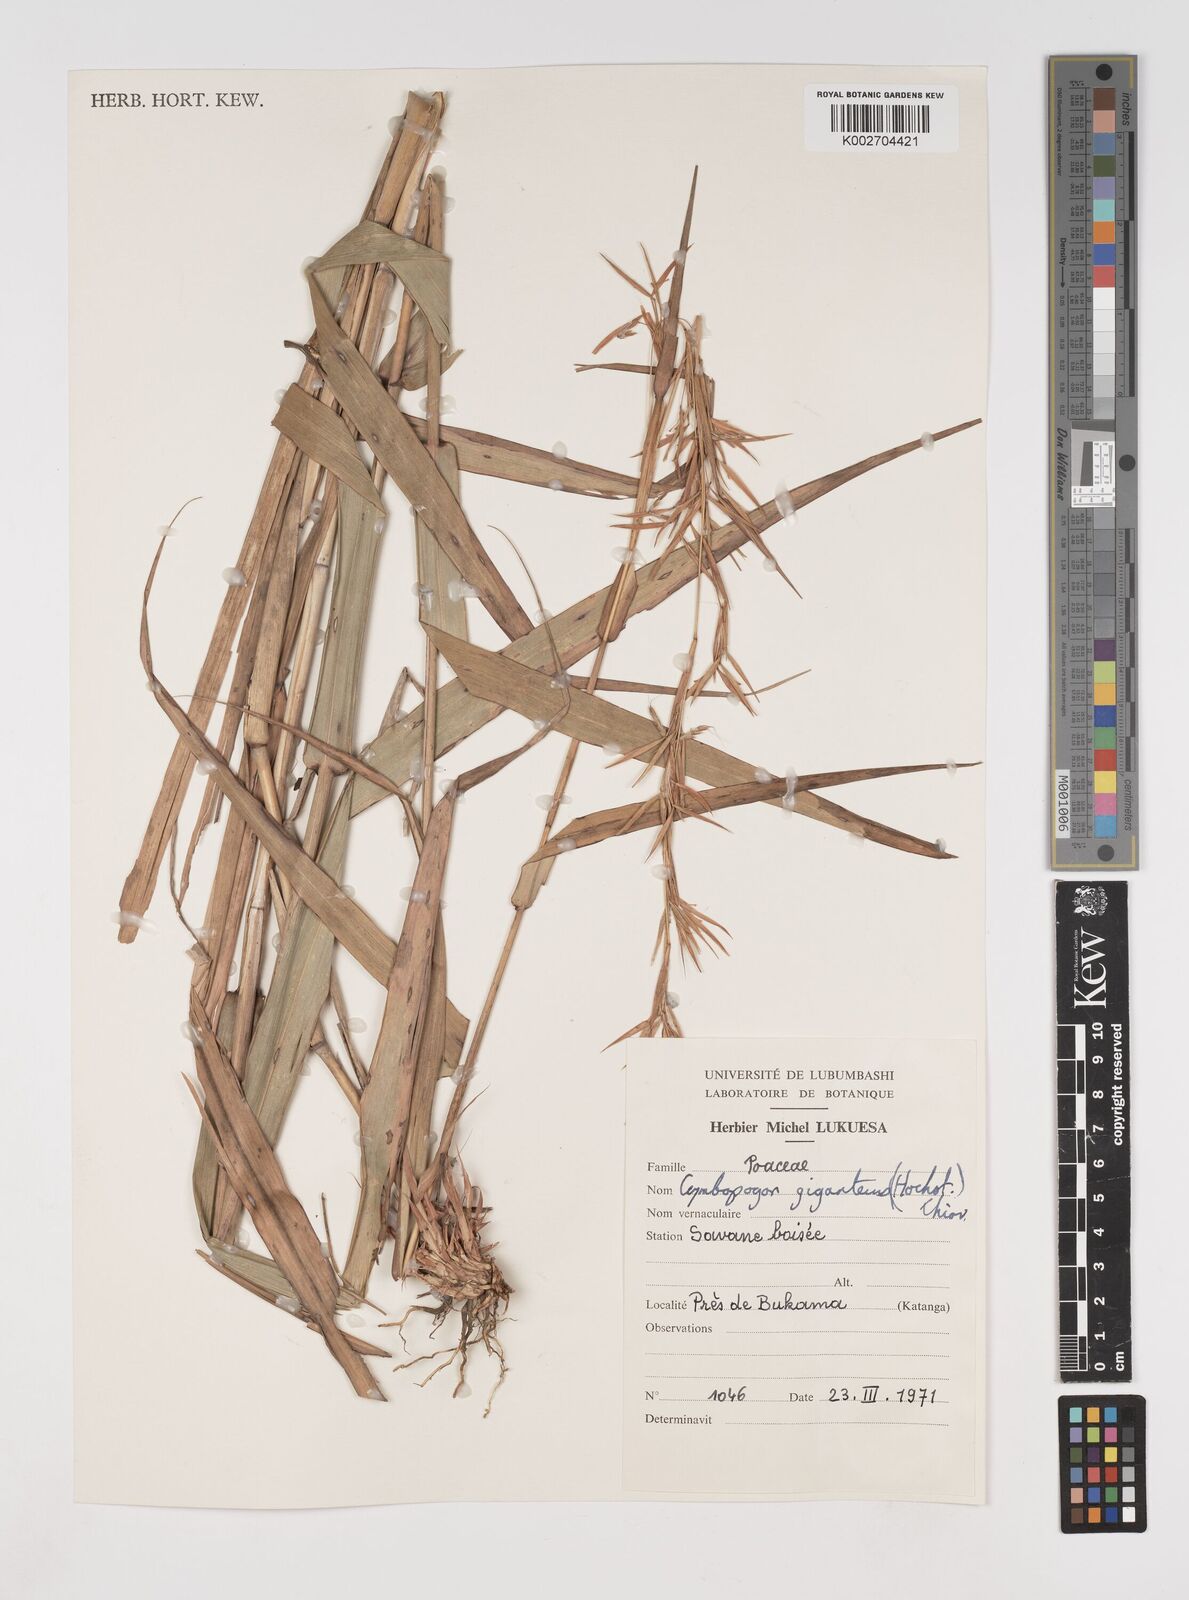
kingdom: Plantae
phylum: Tracheophyta
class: Liliopsida
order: Poales
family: Poaceae
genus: Cymbopogon
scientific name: Cymbopogon giganteus
